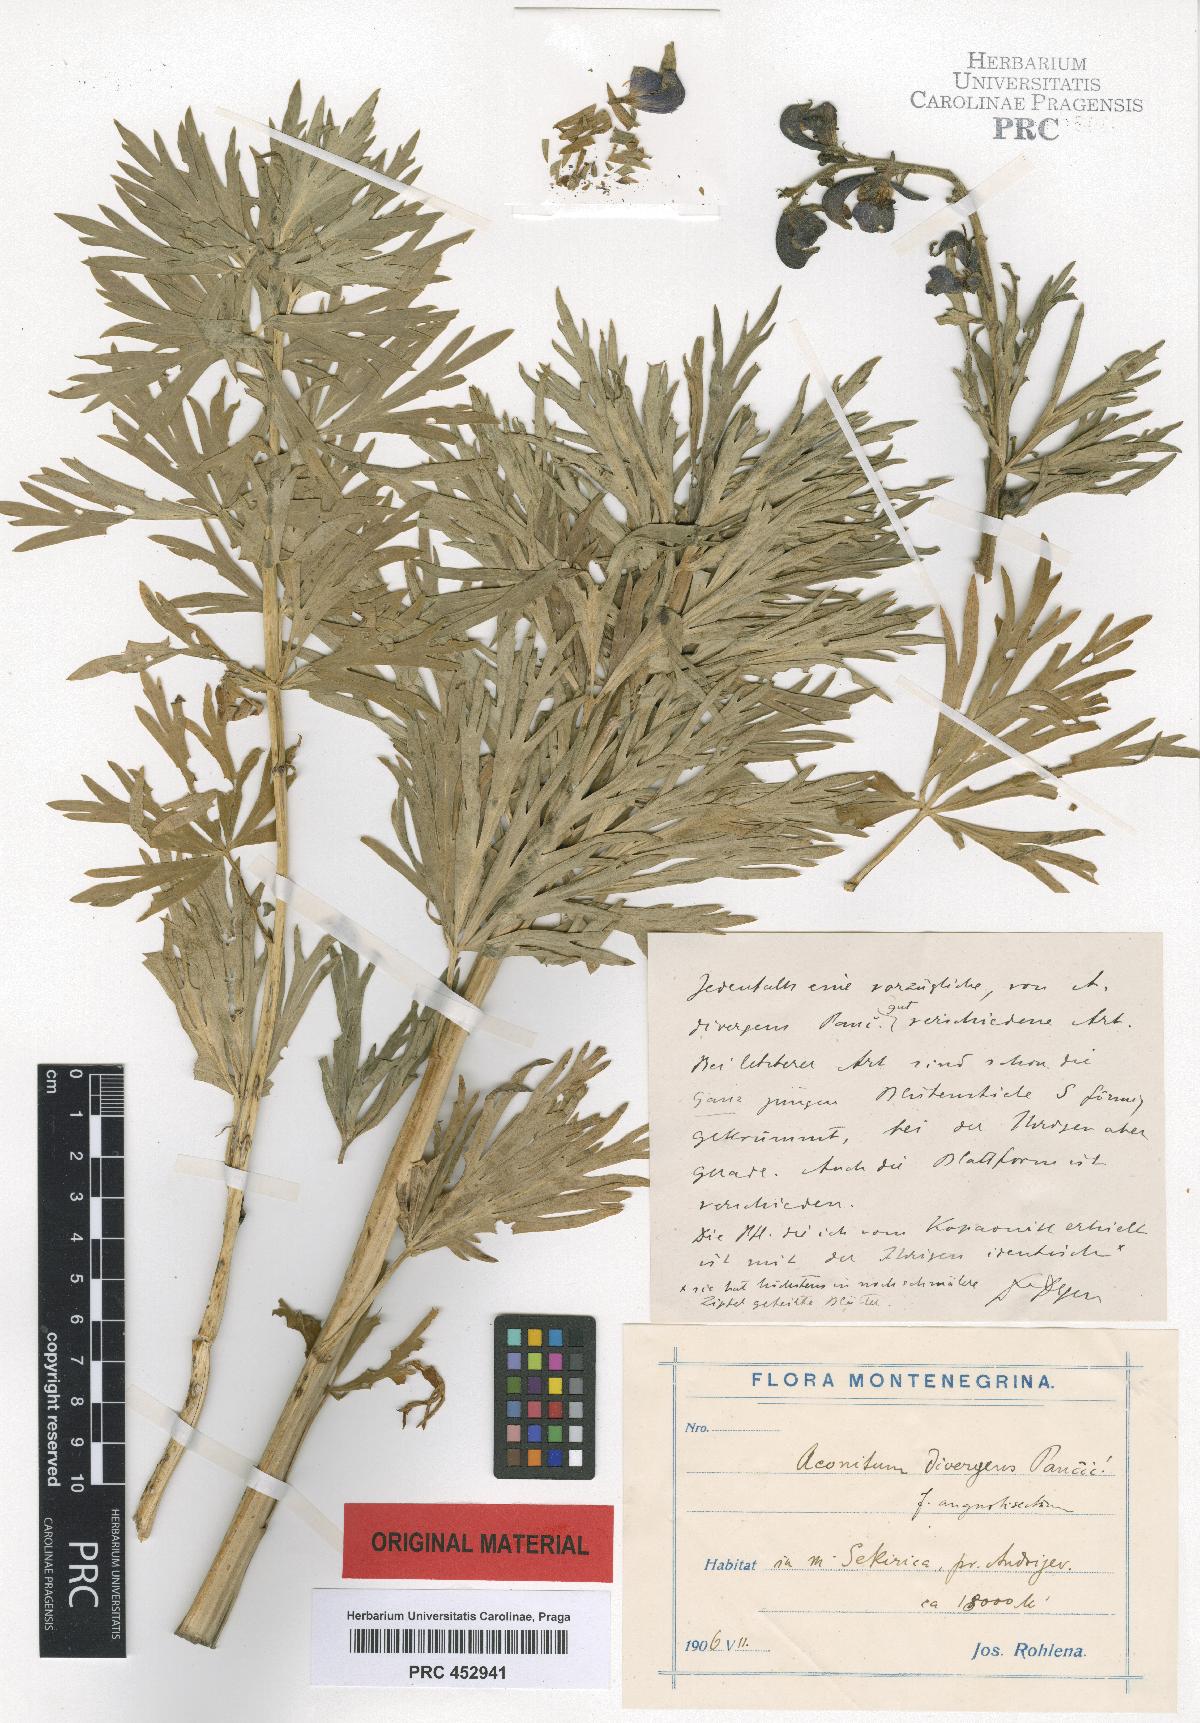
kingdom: Plantae
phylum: Tracheophyta
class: Magnoliopsida
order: Ranunculales
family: Ranunculaceae
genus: Aconitum
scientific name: Aconitum pentheri
